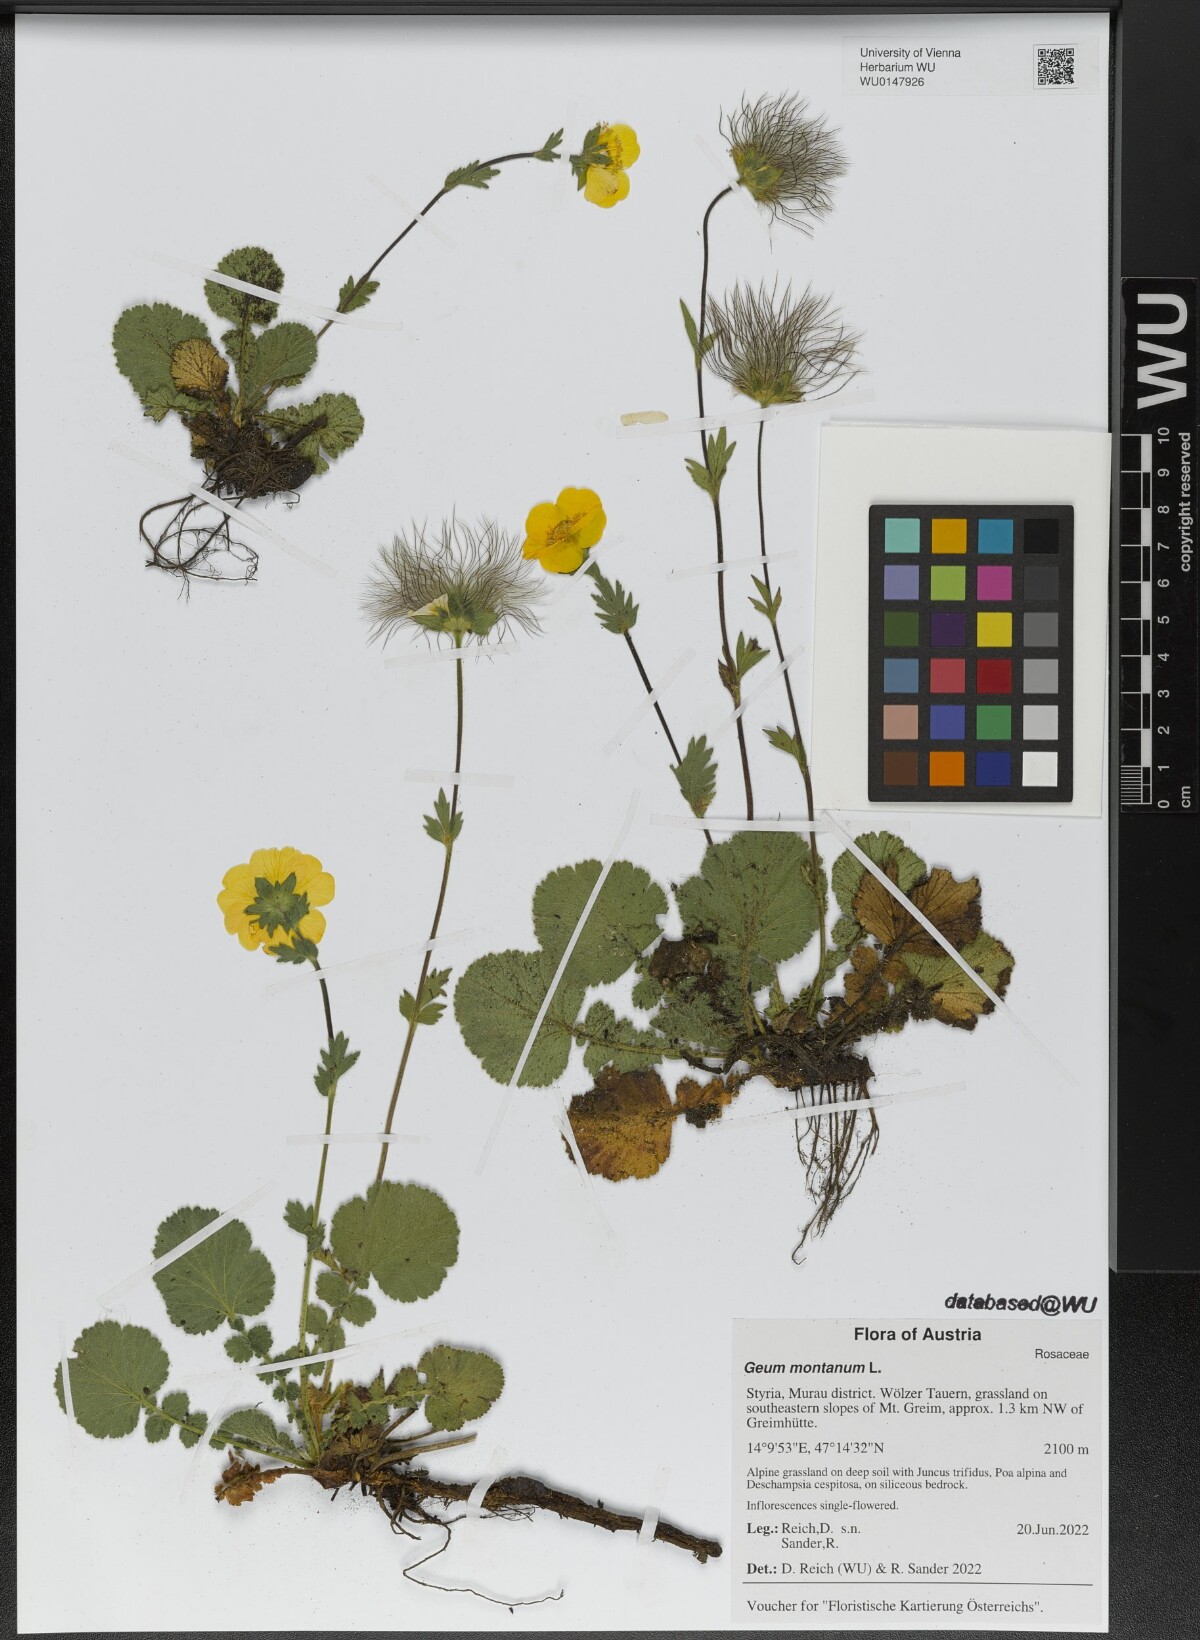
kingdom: Plantae
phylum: Tracheophyta
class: Magnoliopsida
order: Rosales
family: Rosaceae
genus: Geum
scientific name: Geum montanum
